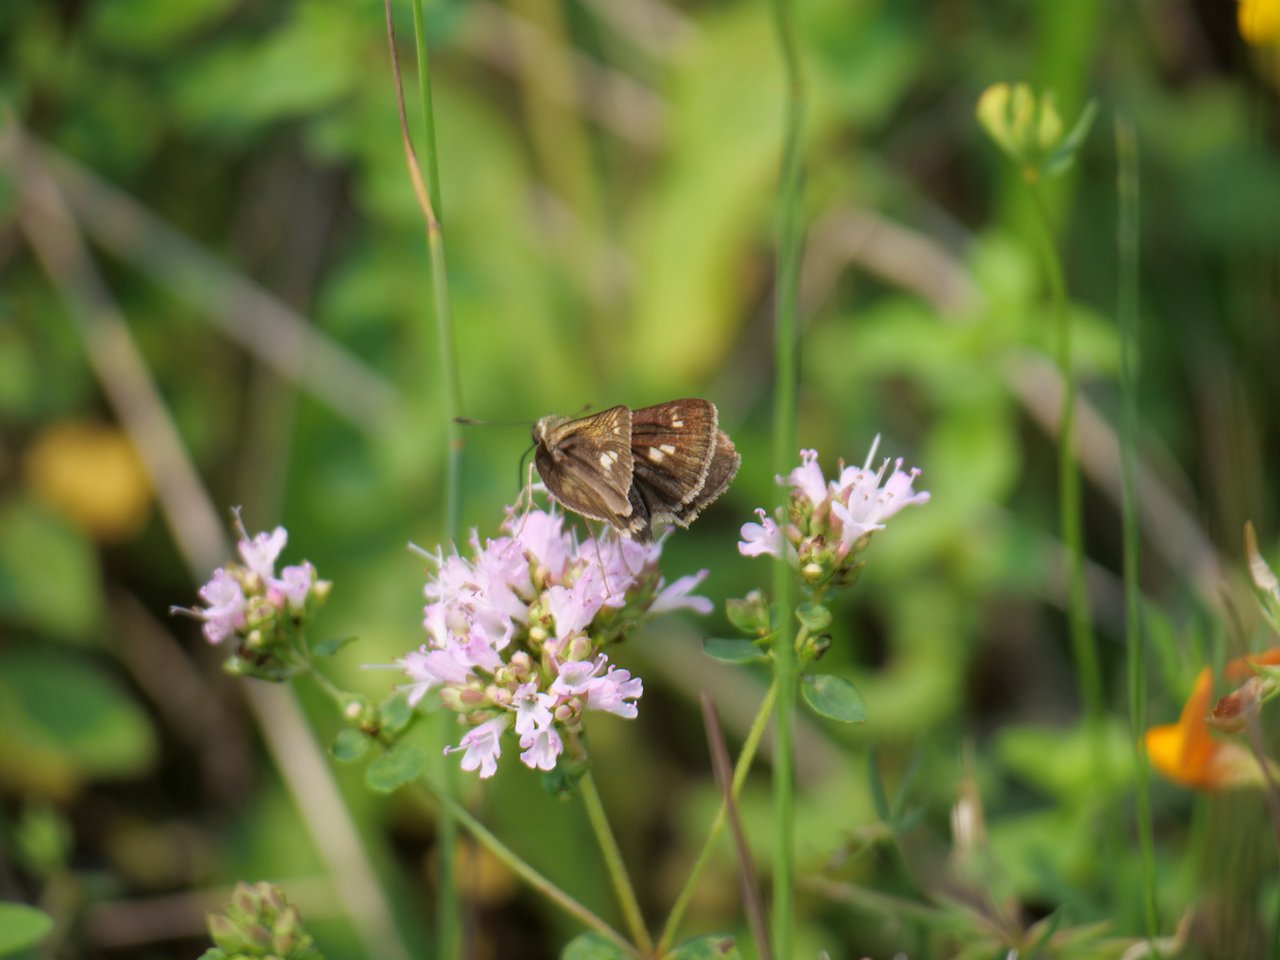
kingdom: Animalia
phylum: Arthropoda
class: Insecta
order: Lepidoptera
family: Hesperiidae
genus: Polites
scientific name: Polites egeremet
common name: Northern Broken-Dash
